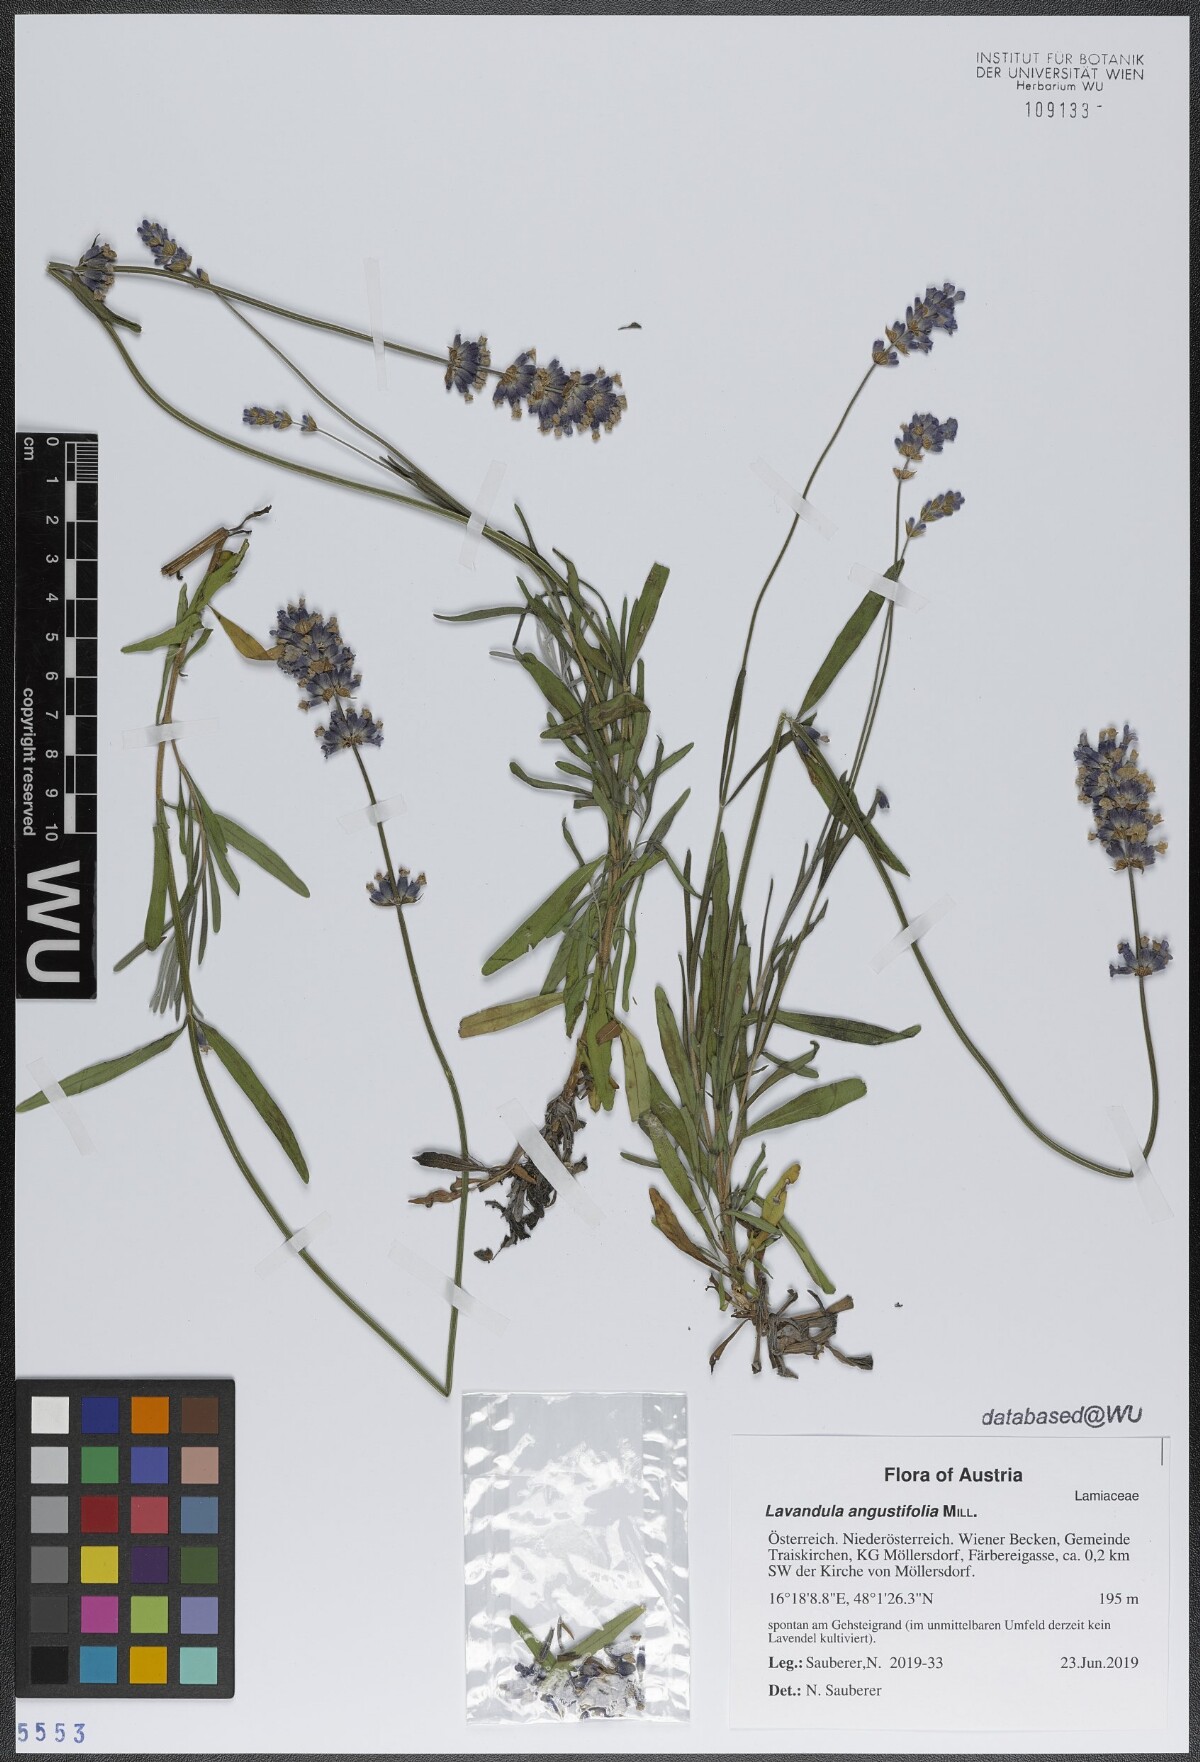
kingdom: Plantae
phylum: Tracheophyta
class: Magnoliopsida
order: Lamiales
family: Lamiaceae
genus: Lavandula
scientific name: Lavandula angustifolia
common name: Garden lavender
